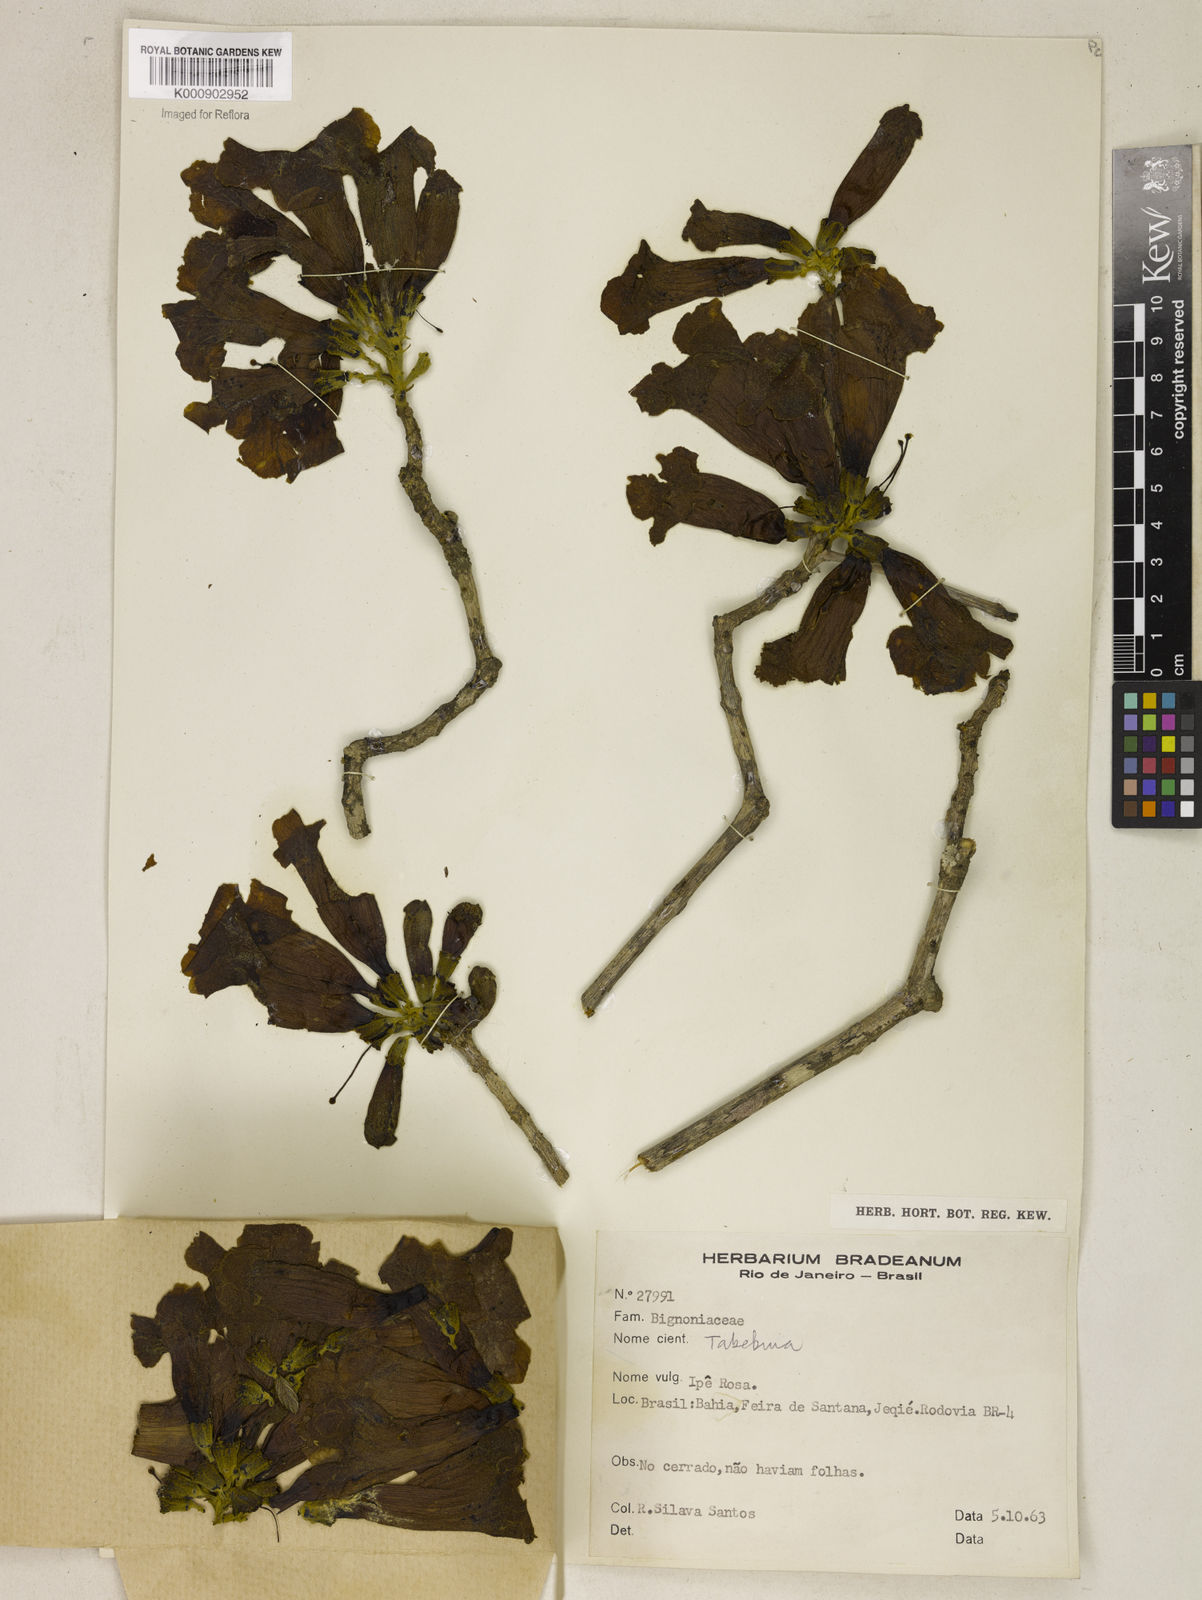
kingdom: Plantae
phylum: Tracheophyta
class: Magnoliopsida
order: Lamiales
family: Bignoniaceae
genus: Tabebuia
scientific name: Tabebuia
